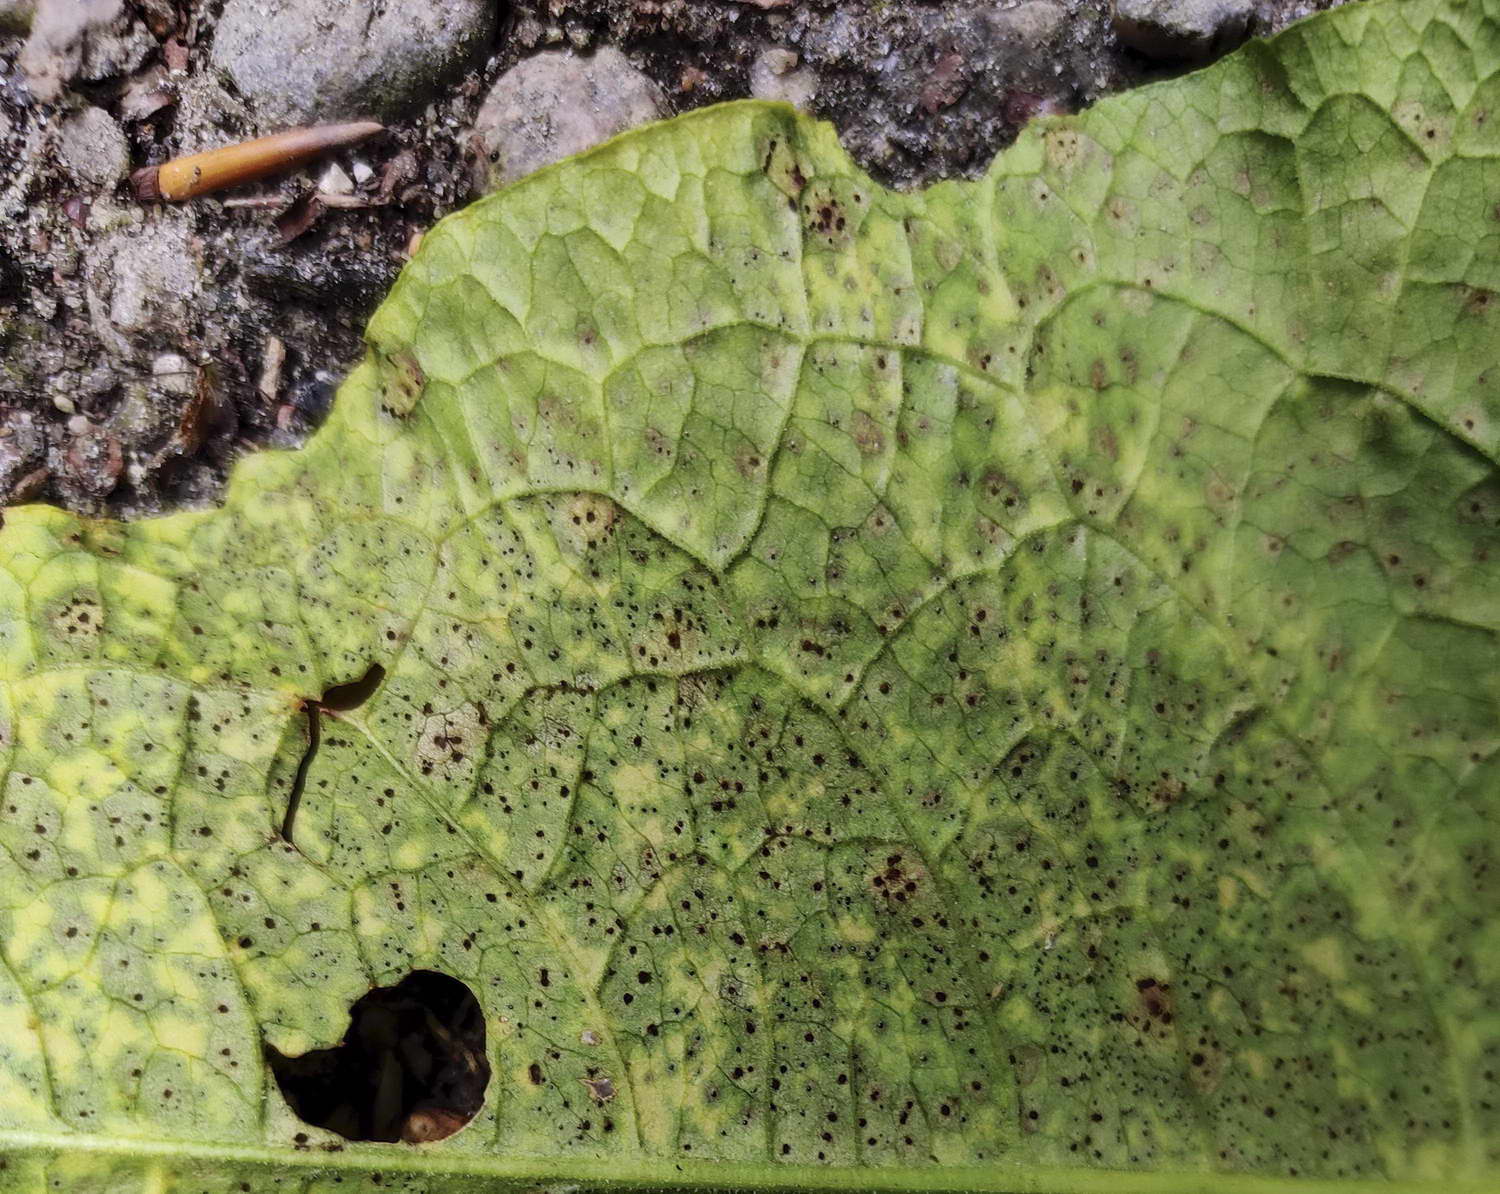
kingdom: Fungi
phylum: Basidiomycota
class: Pucciniomycetes
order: Pucciniales
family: Pucciniaceae
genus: Uromyces
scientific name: Uromyces rumicis
